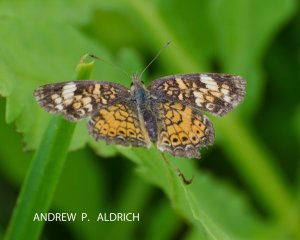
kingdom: Animalia
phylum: Arthropoda
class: Insecta
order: Lepidoptera
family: Nymphalidae
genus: Phyciodes
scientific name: Phyciodes tharos
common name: Pearl Crescent
